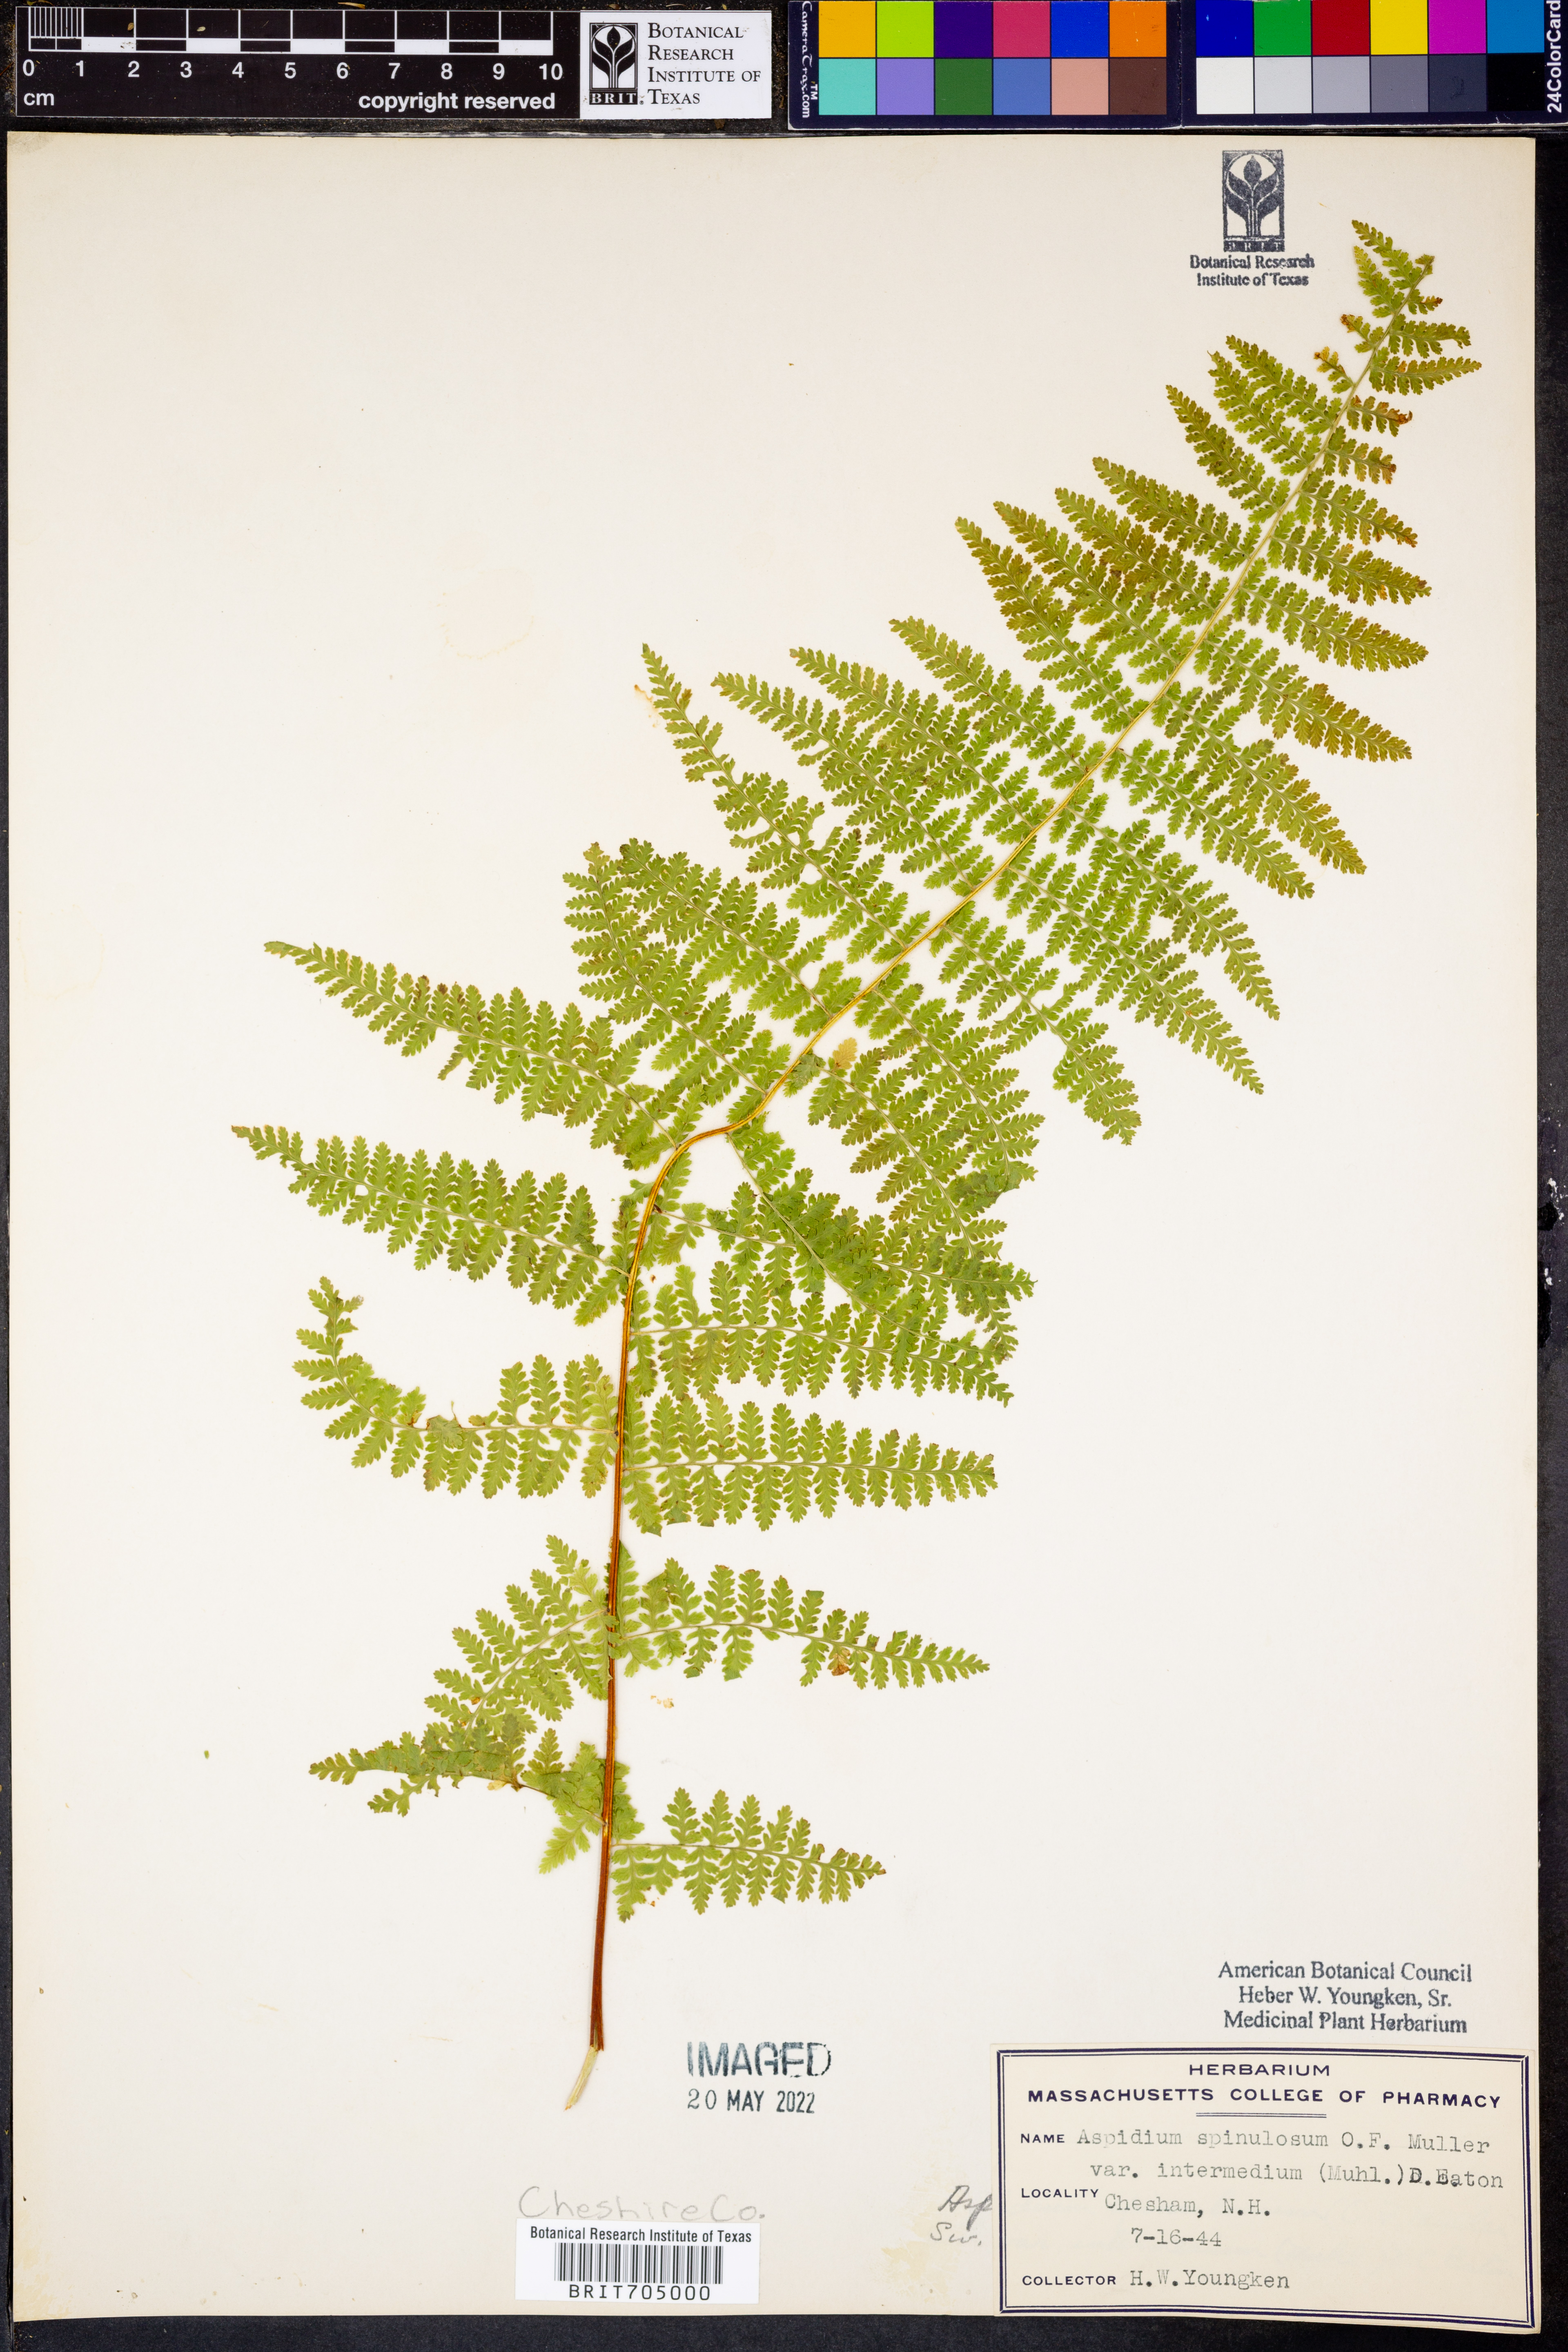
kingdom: Plantae
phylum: Tracheophyta
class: Polypodiopsida
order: Polypodiales
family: Dryopteridaceae
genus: Dryopteris
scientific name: Dryopteris intermedia
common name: Evergreen wood fern
